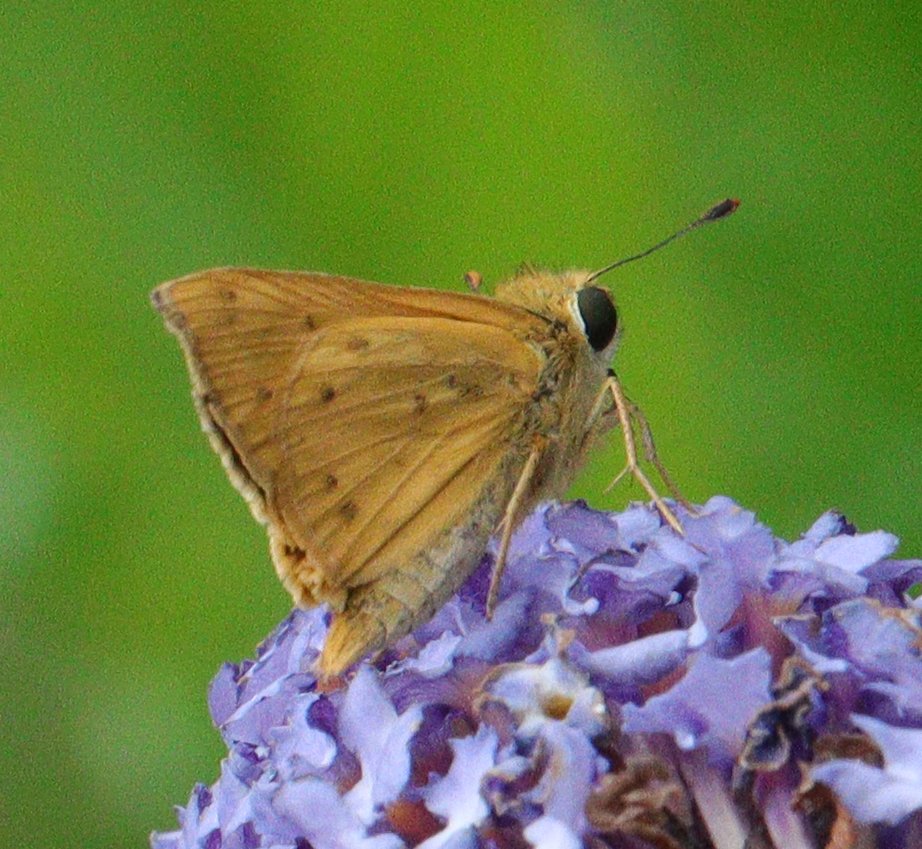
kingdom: Animalia
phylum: Arthropoda
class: Insecta
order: Lepidoptera
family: Hesperiidae
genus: Hylephila
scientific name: Hylephila phyleus
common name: Fiery Skipper
